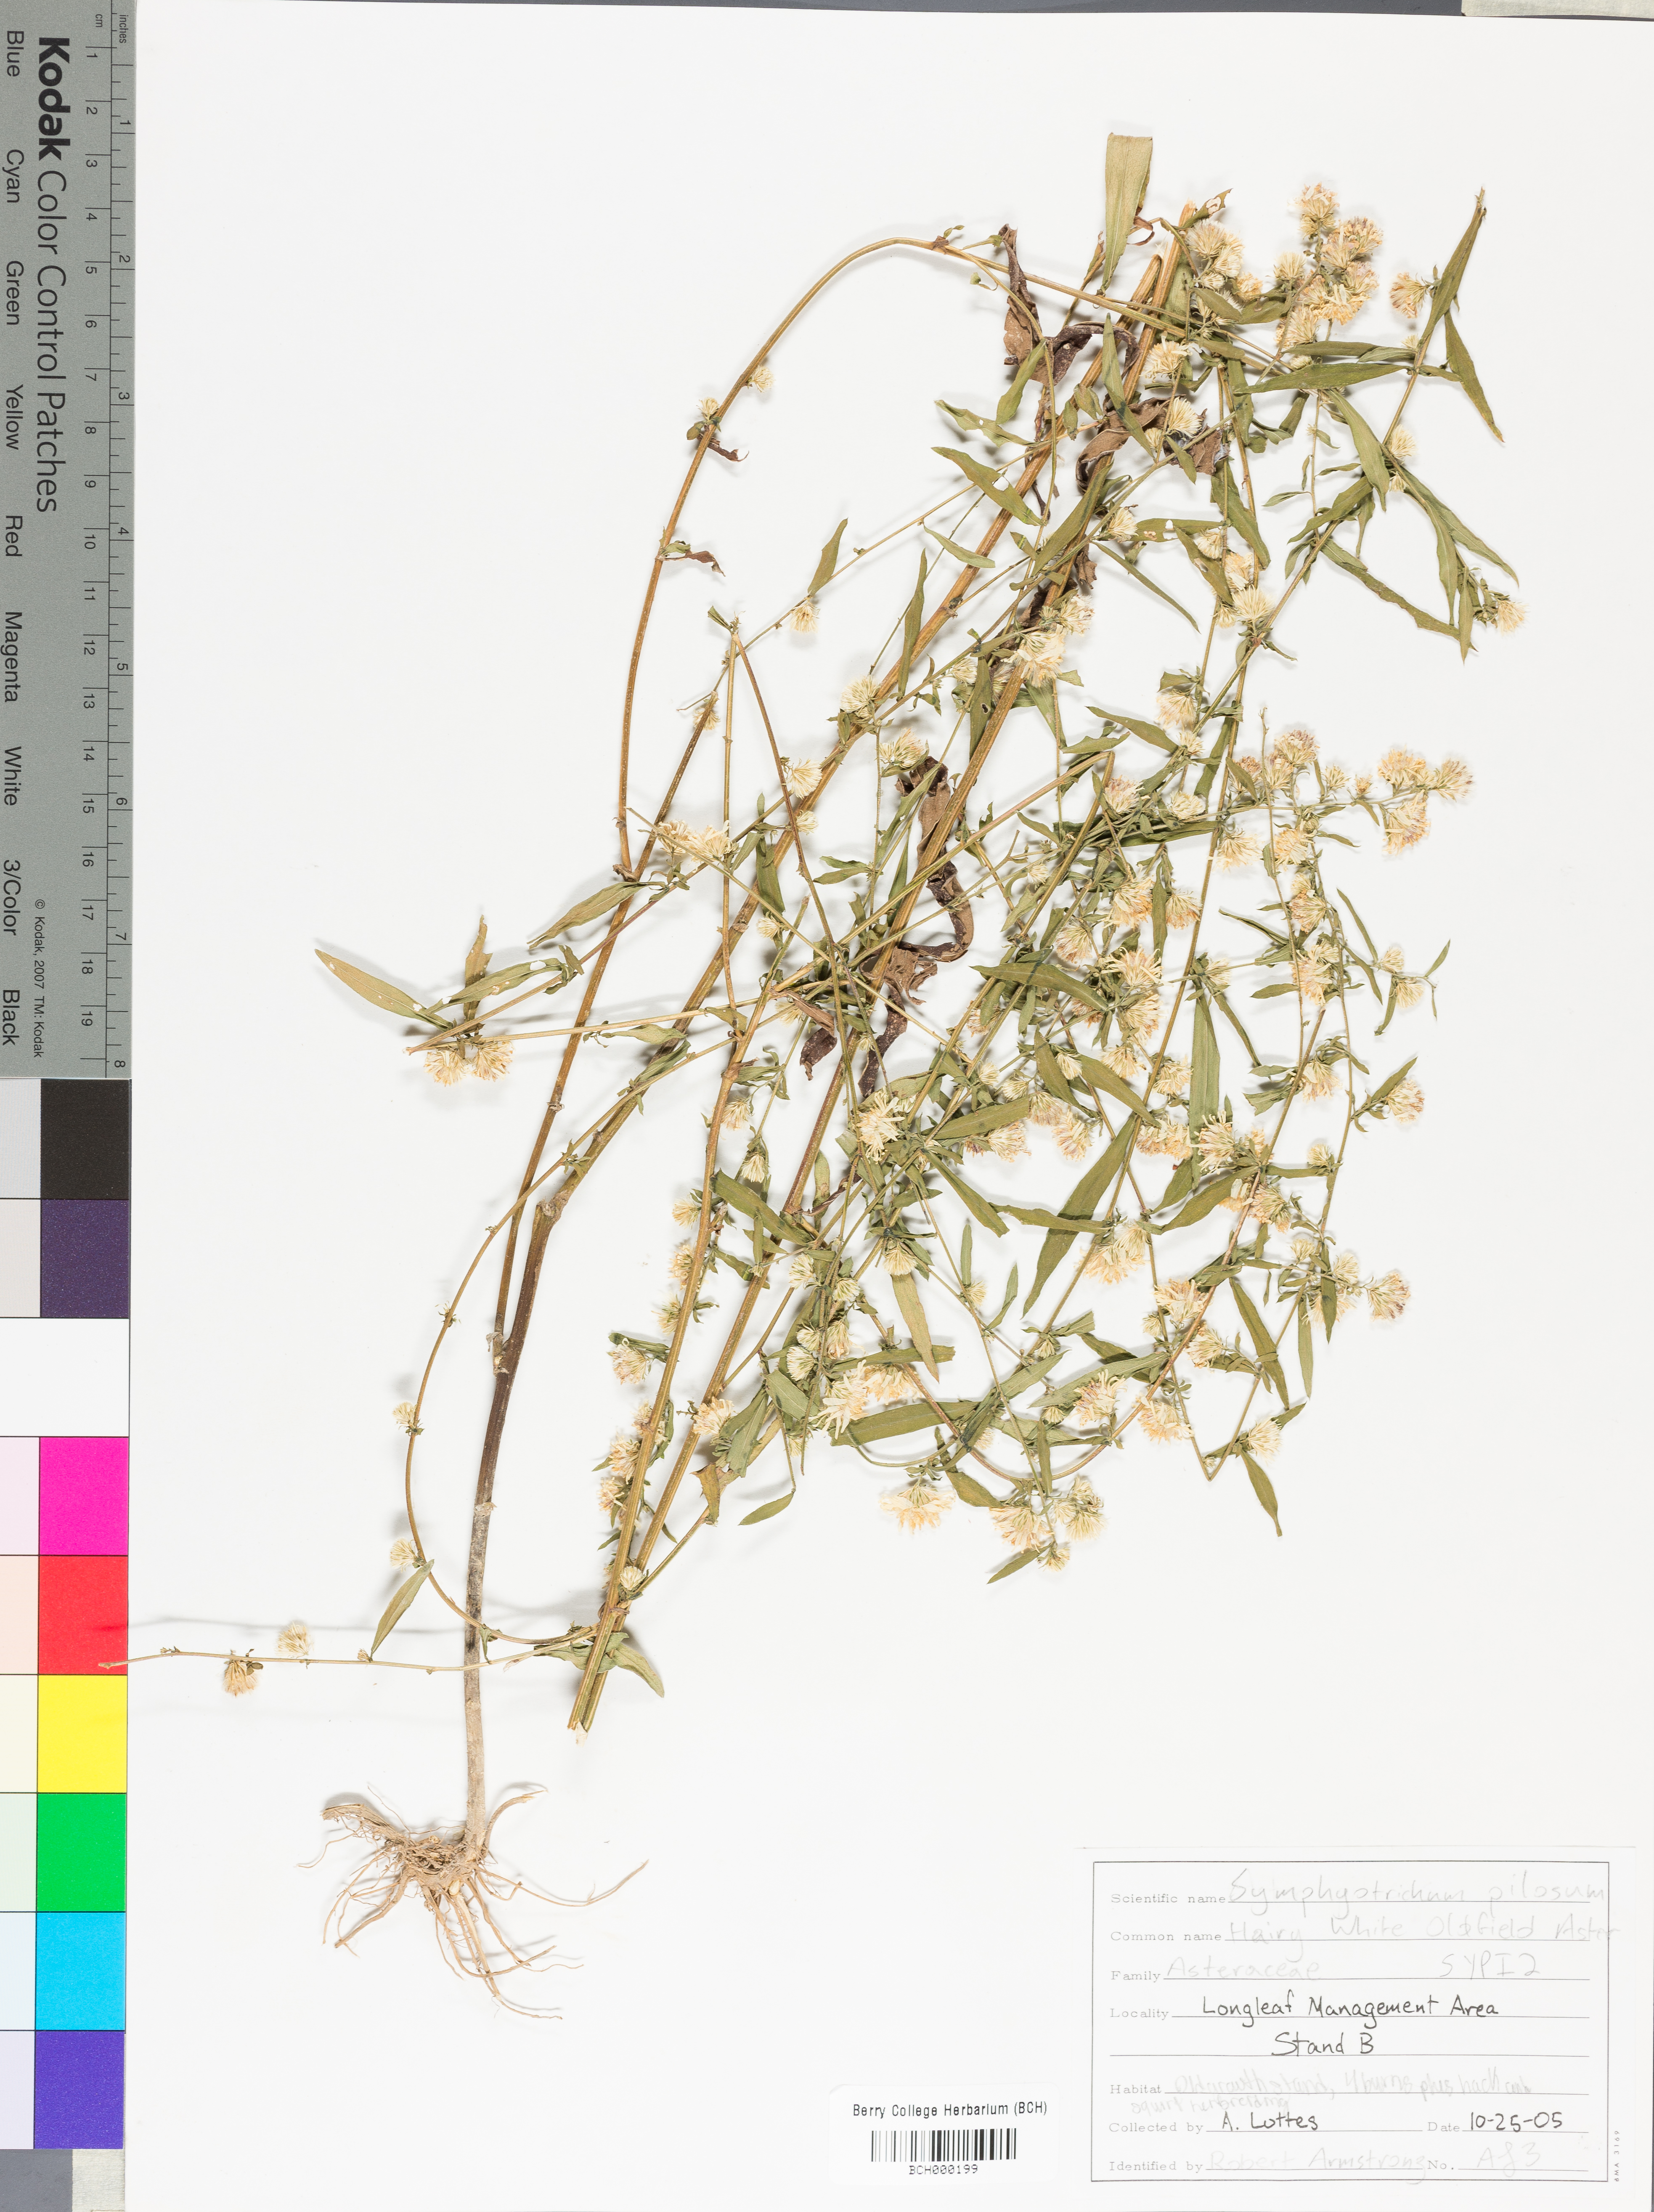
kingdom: Plantae
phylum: Tracheophyta
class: Magnoliopsida
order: Asterales
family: Asteraceae
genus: Symphyotrichum
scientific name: Symphyotrichum pilosum
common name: Awl aster
